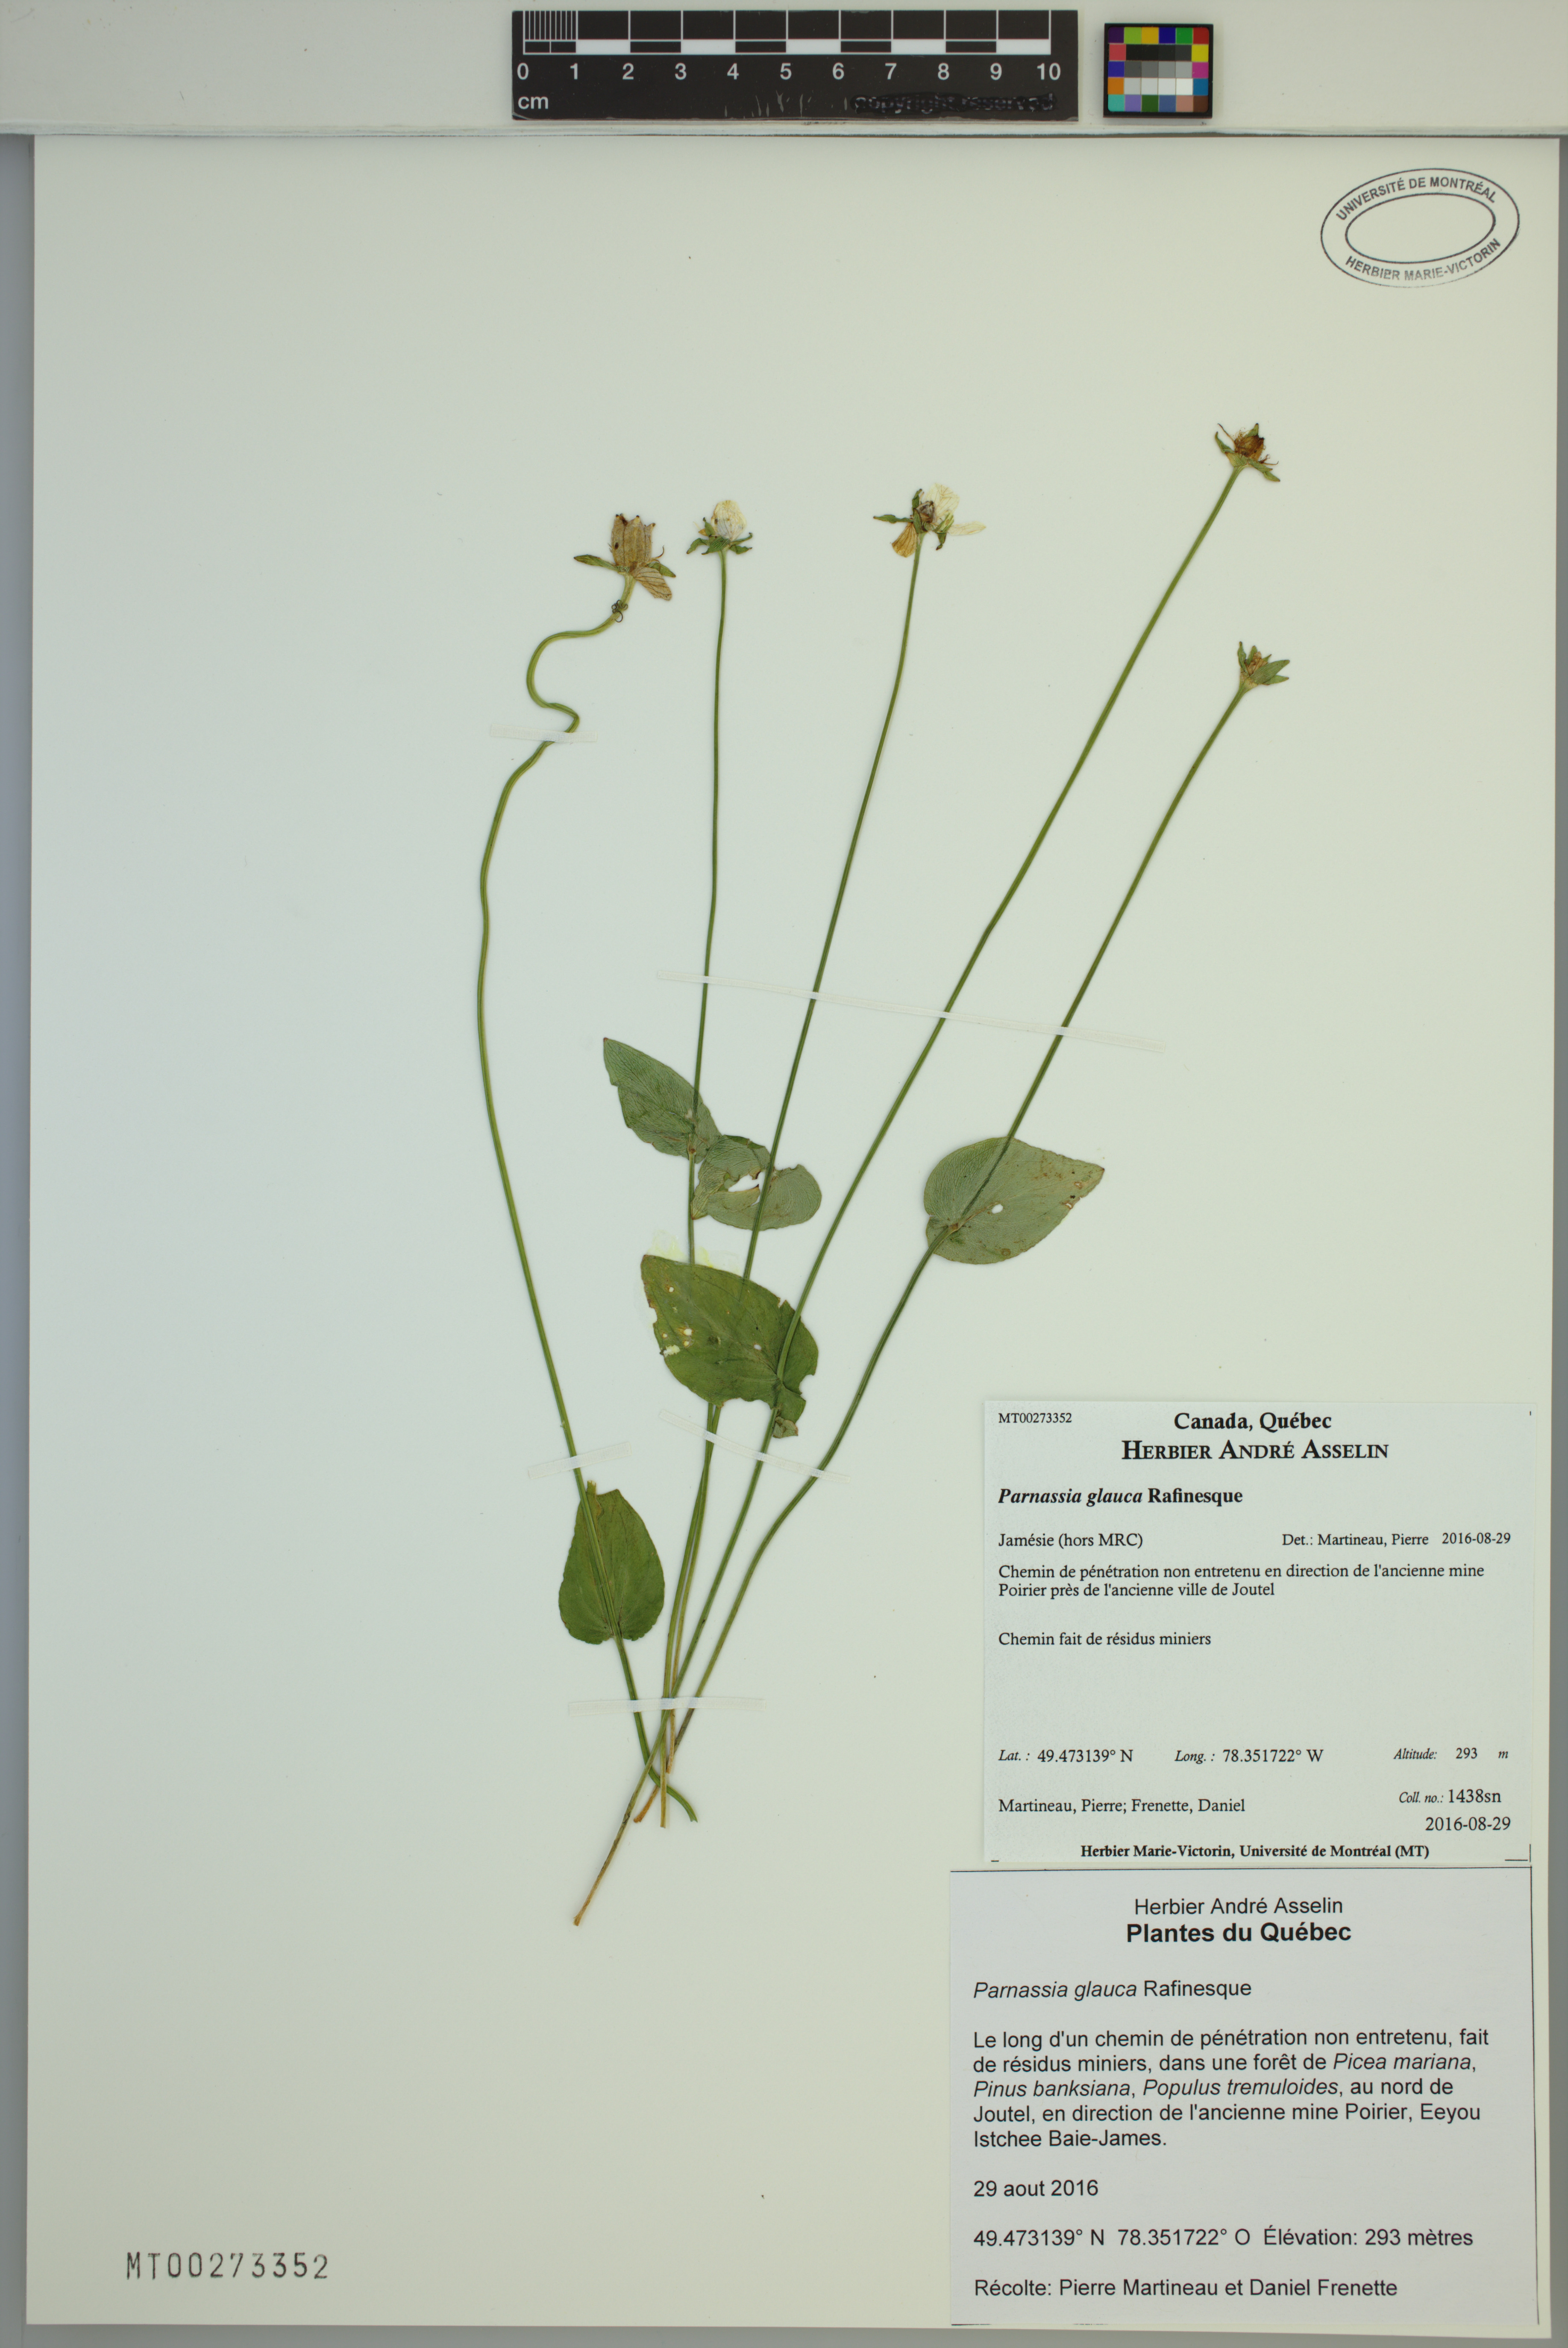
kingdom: Plantae
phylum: Tracheophyta
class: Magnoliopsida
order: Celastrales
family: Parnassiaceae
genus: Parnassia
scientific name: Parnassia glauca
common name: American grass-of-parnassus
